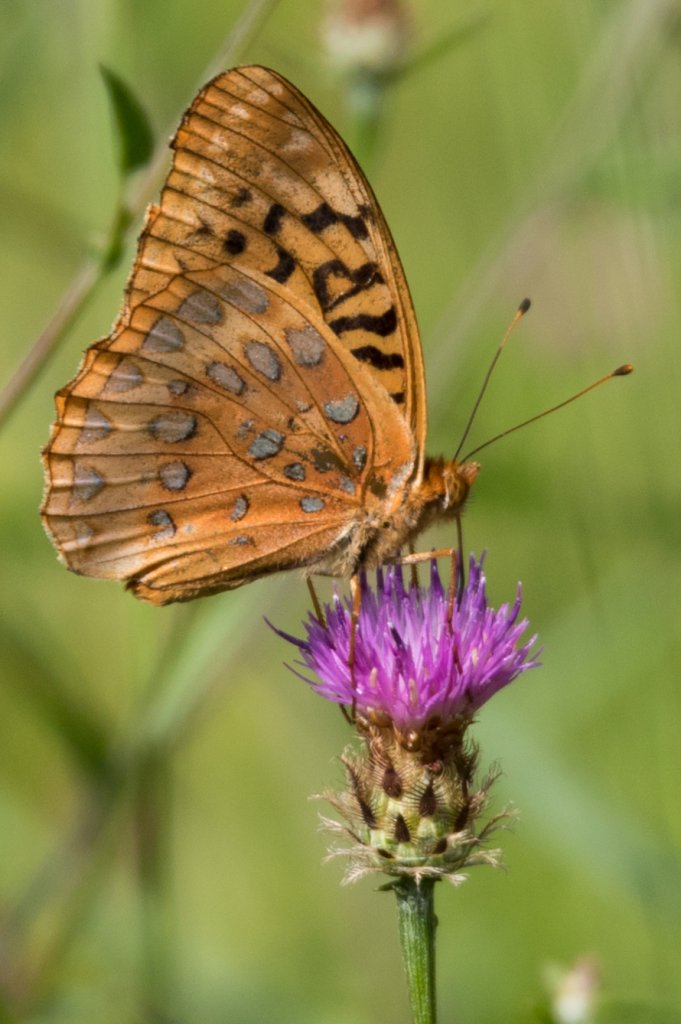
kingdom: Animalia
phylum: Arthropoda
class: Insecta
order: Lepidoptera
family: Nymphalidae
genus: Speyeria
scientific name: Speyeria cybele
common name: Great Spangled Fritillary
